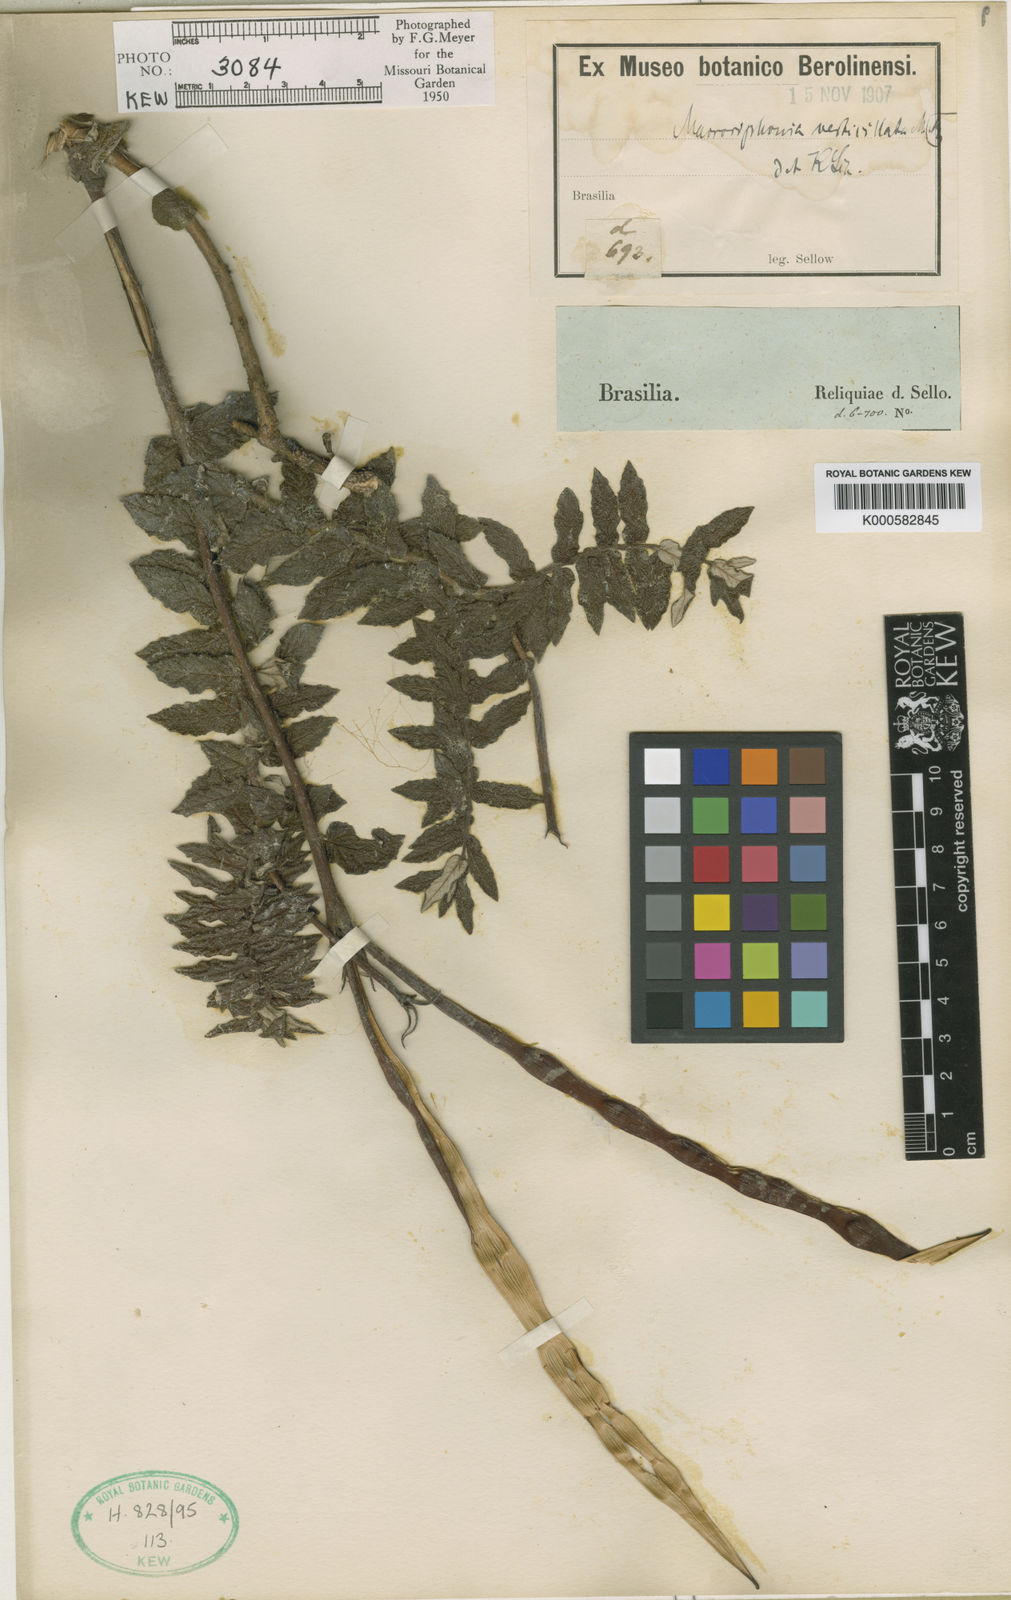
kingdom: Plantae
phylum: Tracheophyta
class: Magnoliopsida
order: Gentianales
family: Apocynaceae
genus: Mandevilla
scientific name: Mandevilla petraea
